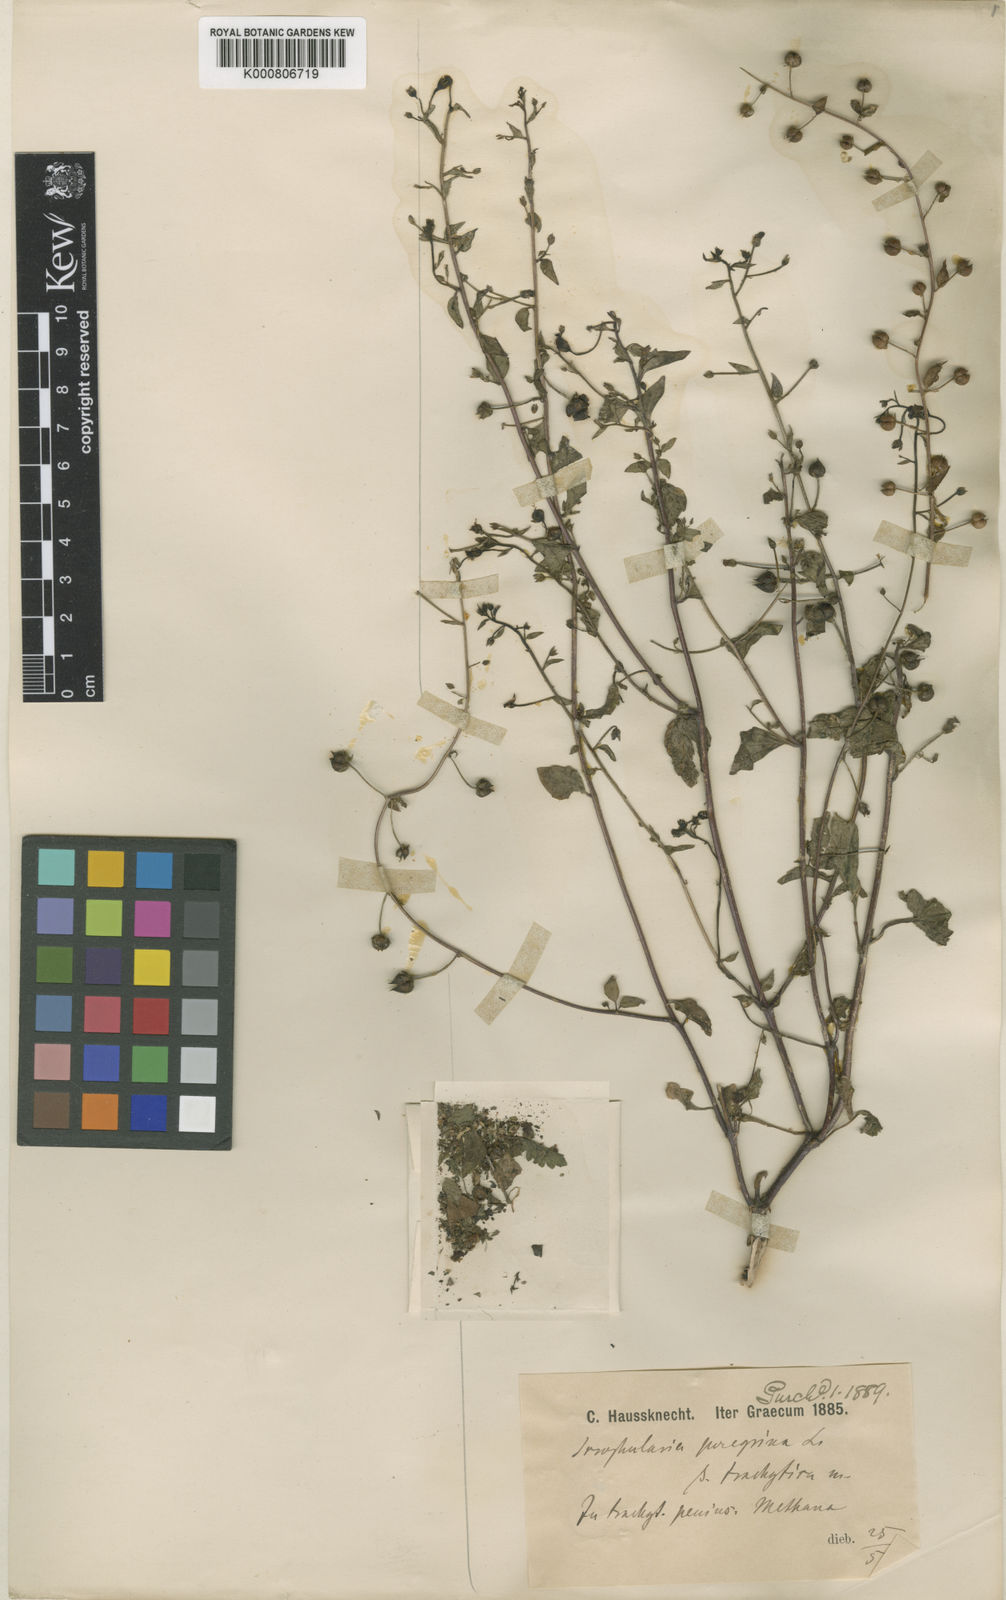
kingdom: Plantae
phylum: Tracheophyta
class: Magnoliopsida
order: Lamiales
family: Scrophulariaceae
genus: Scrophularia
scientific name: Scrophularia peregrina
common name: Mediterranean figwort
